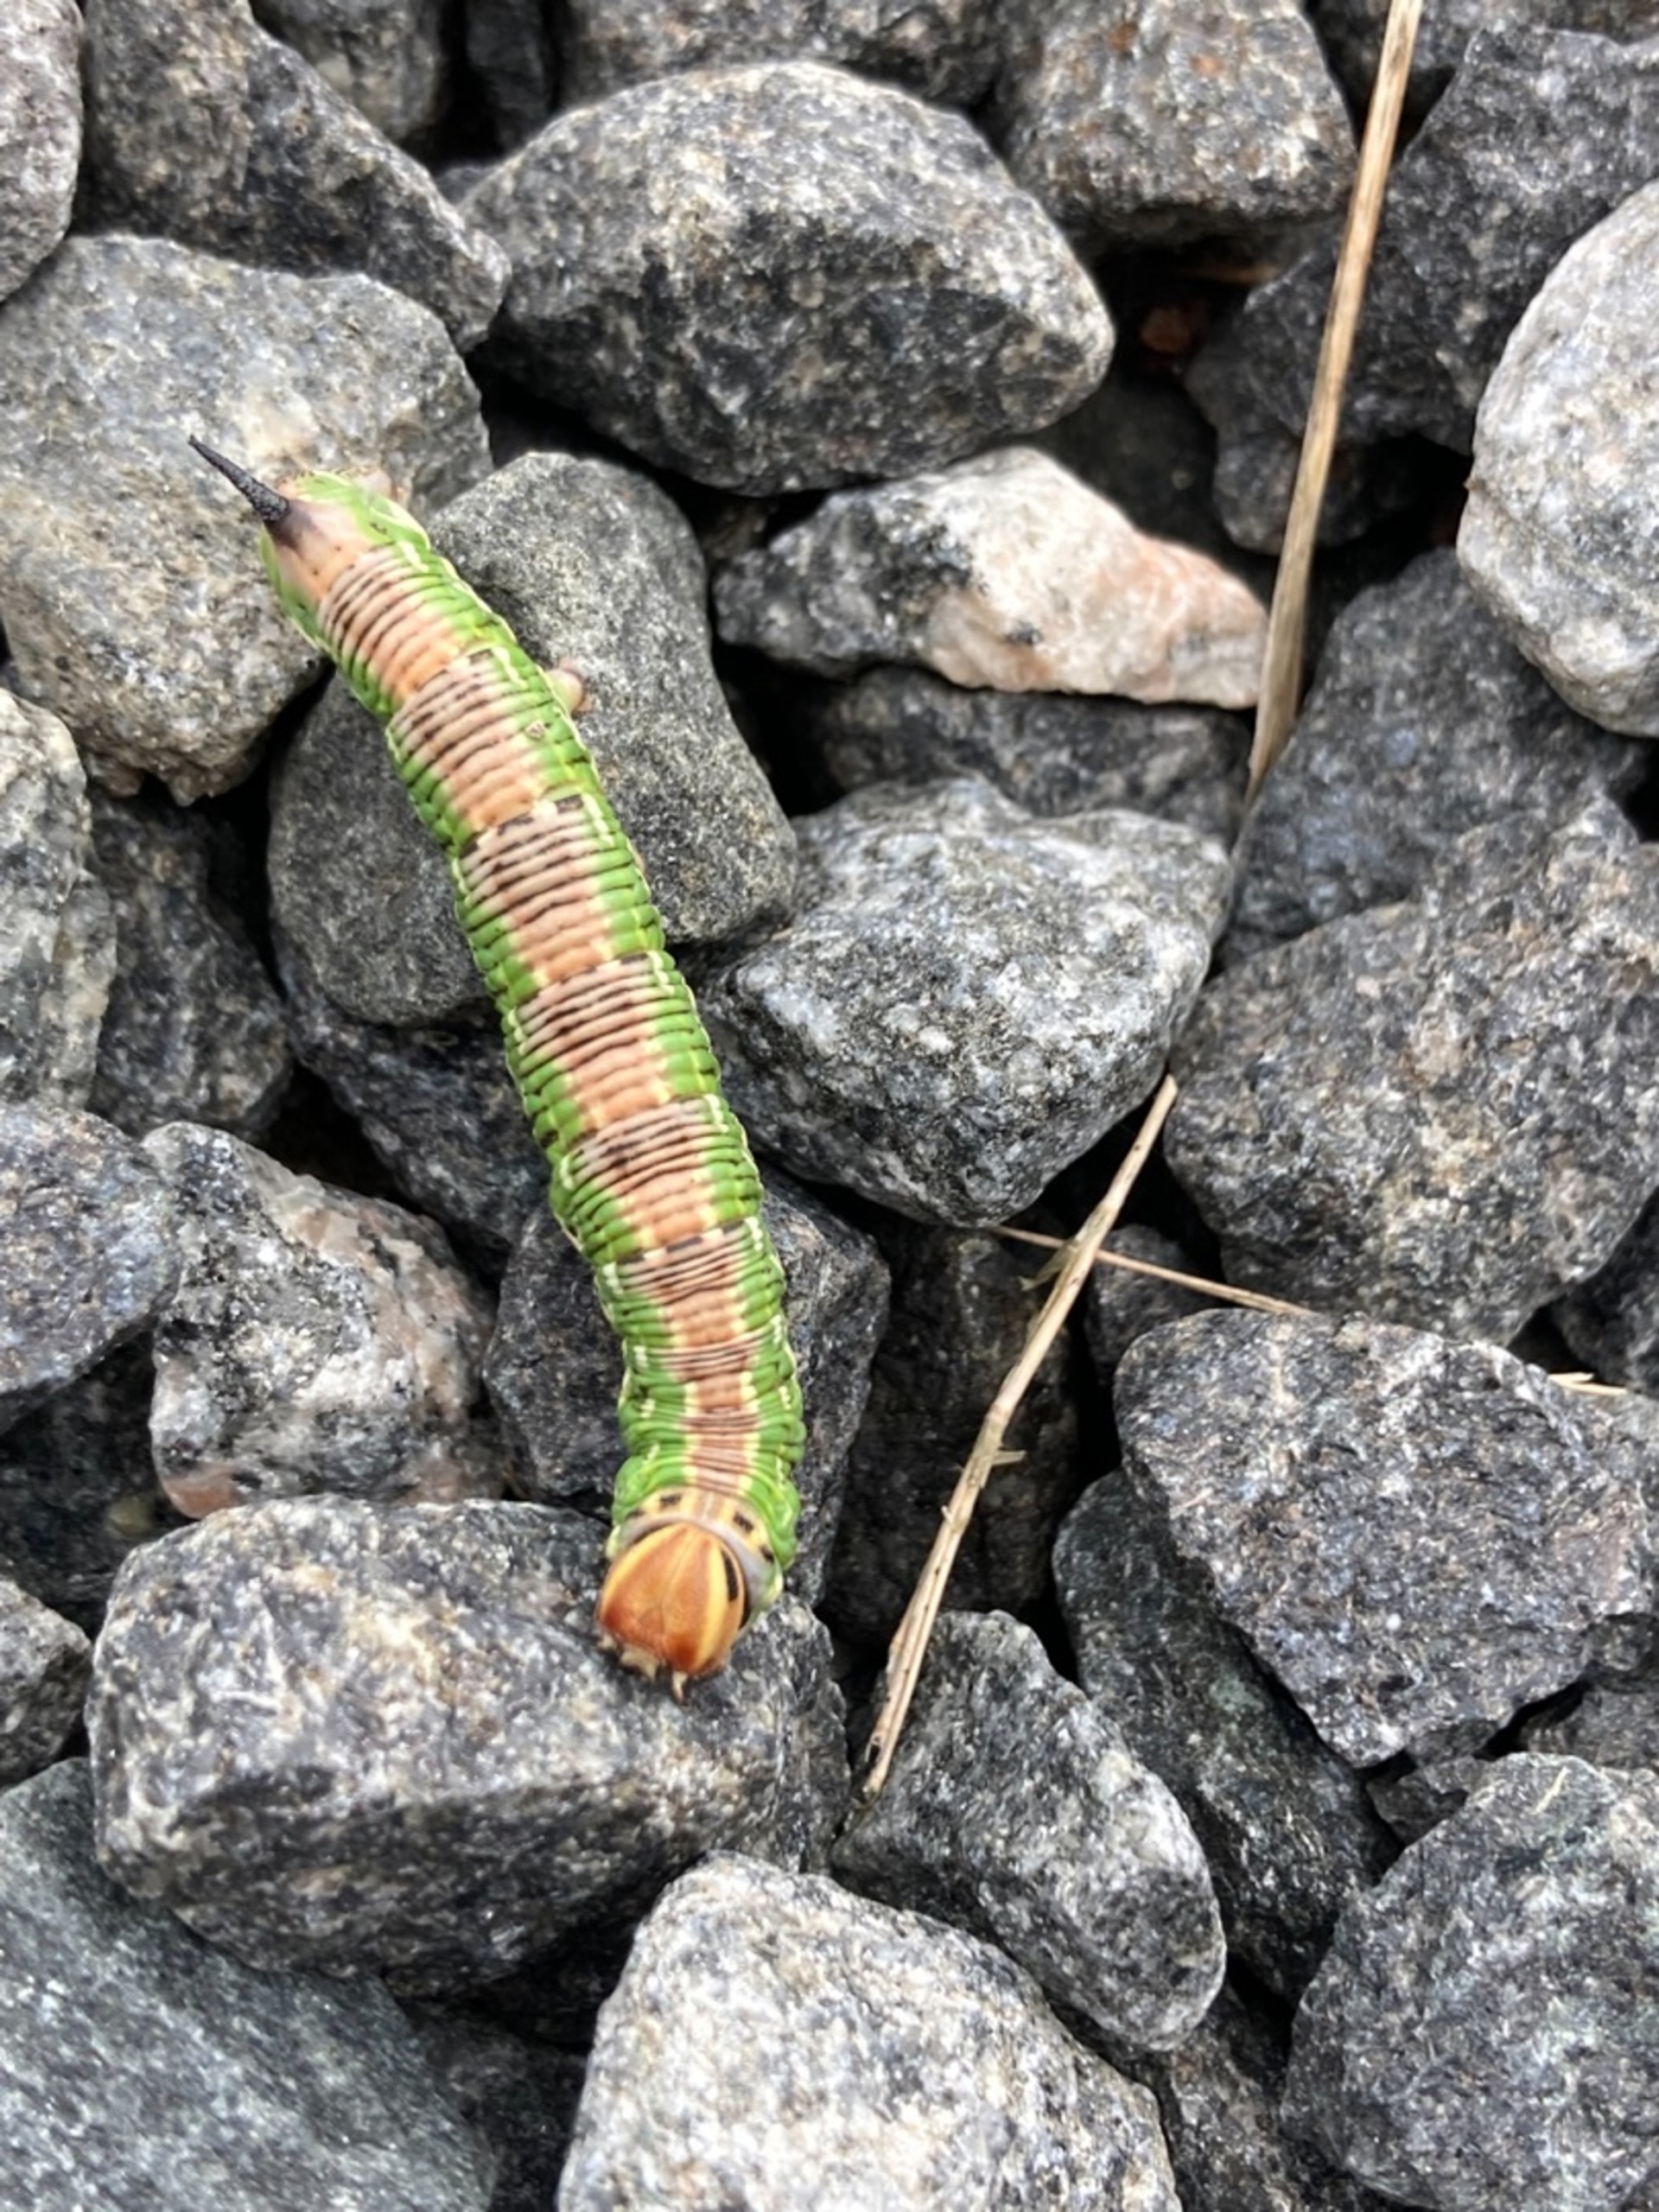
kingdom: Animalia
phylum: Arthropoda
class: Insecta
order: Lepidoptera
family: Sphingidae
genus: Sphinx
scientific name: Sphinx pinastri
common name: Fyrresværmer
